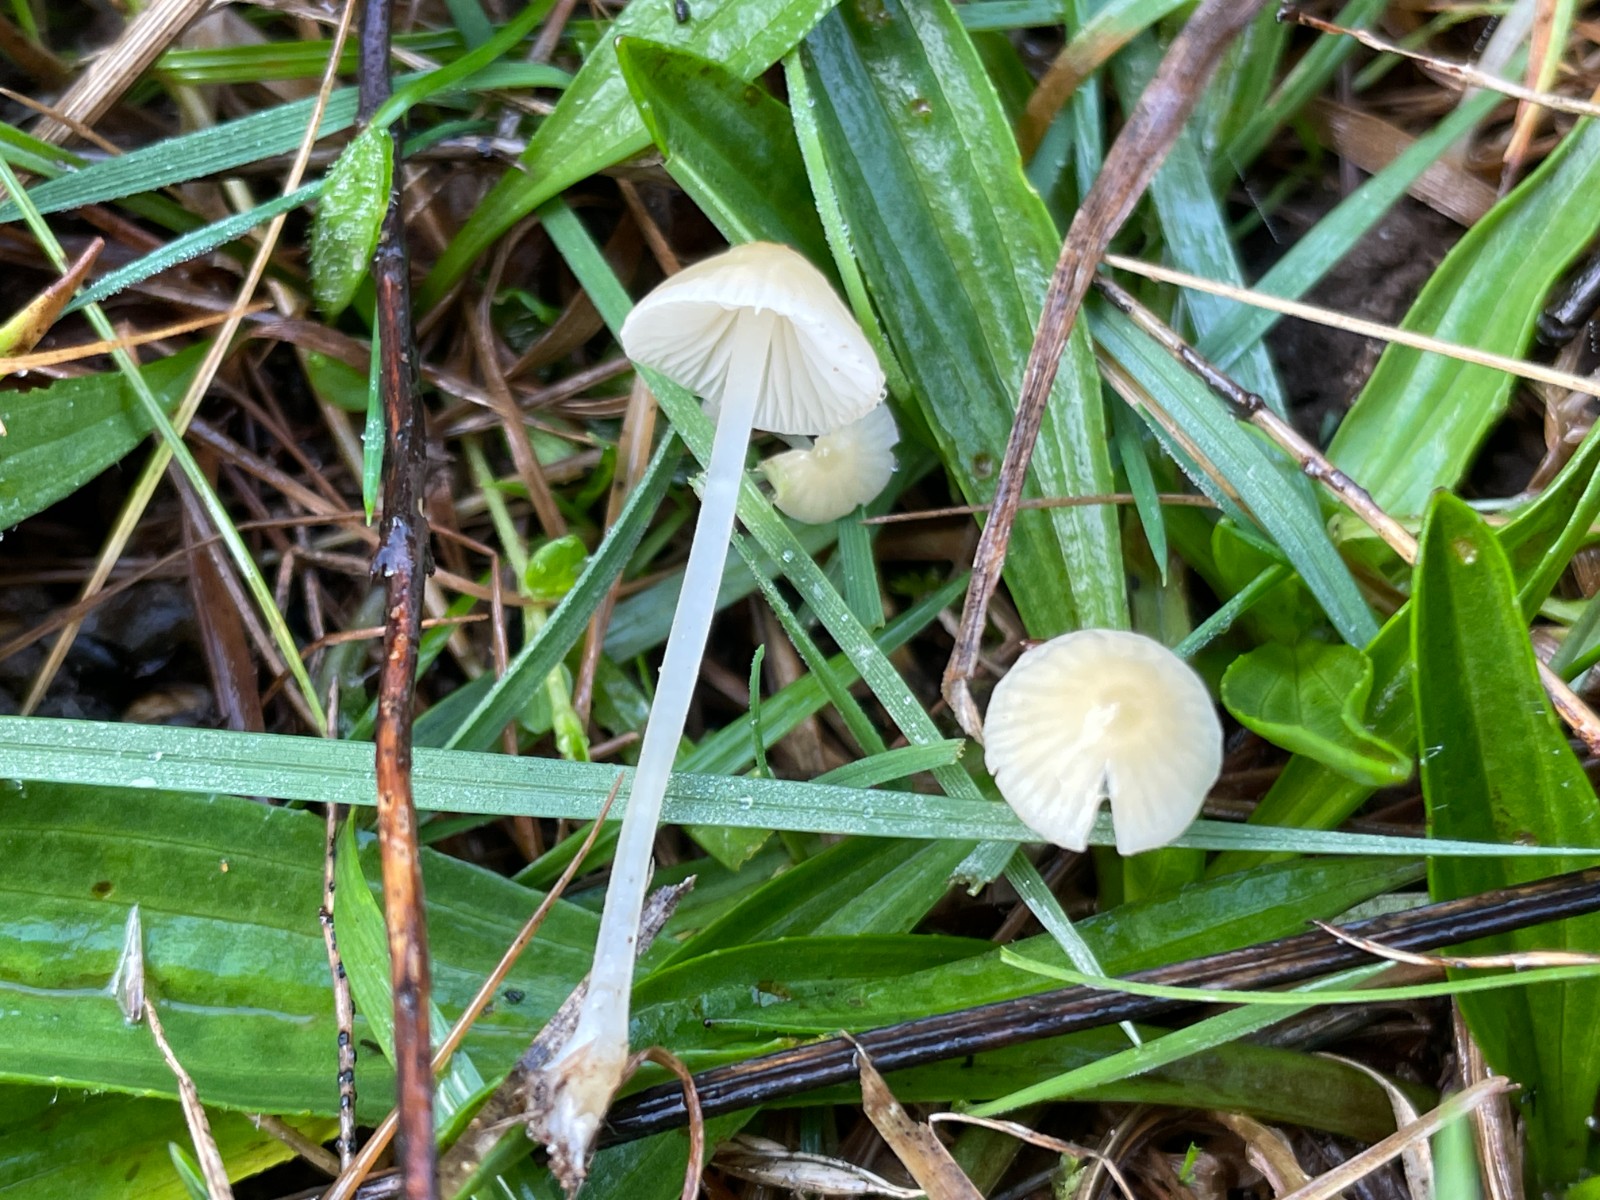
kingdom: Fungi
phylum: Basidiomycota
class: Agaricomycetes
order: Agaricales
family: Mycenaceae
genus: Atheniella
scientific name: Atheniella flavoalba
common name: gulhvid huesvamp
